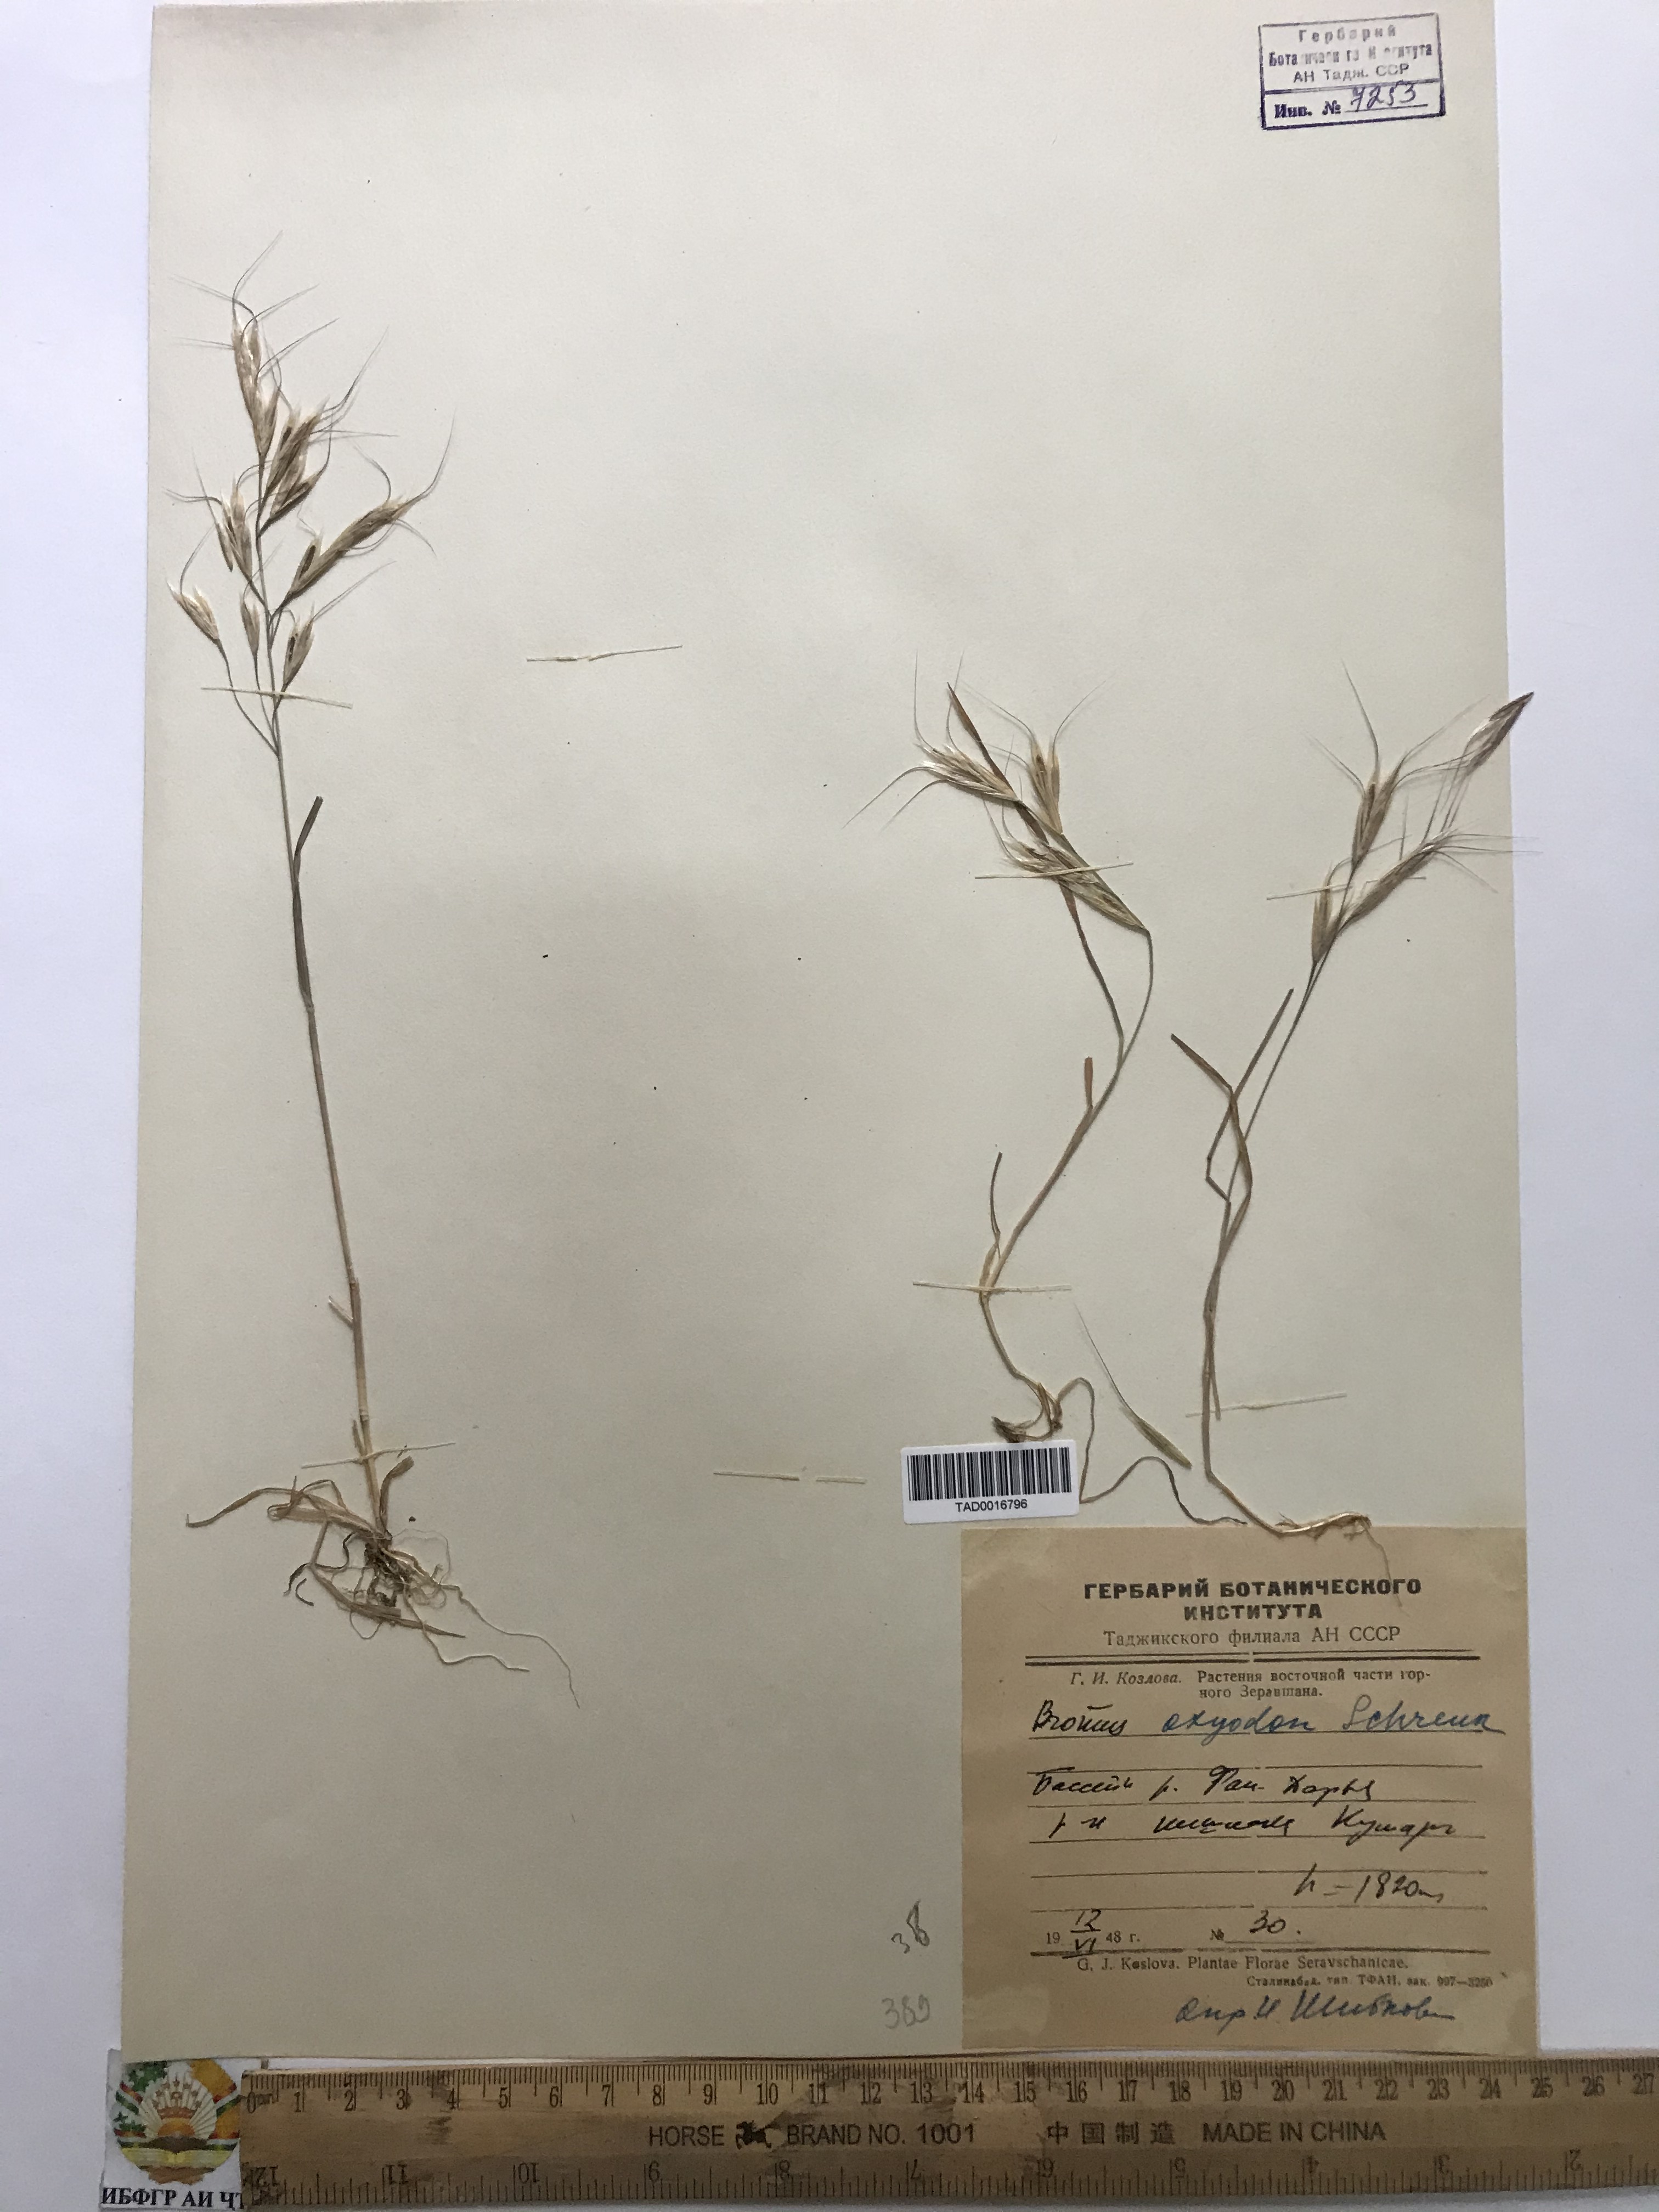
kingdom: Plantae
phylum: Tracheophyta
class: Liliopsida
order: Poales
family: Poaceae
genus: Bromus
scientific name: Bromus oxyodon
